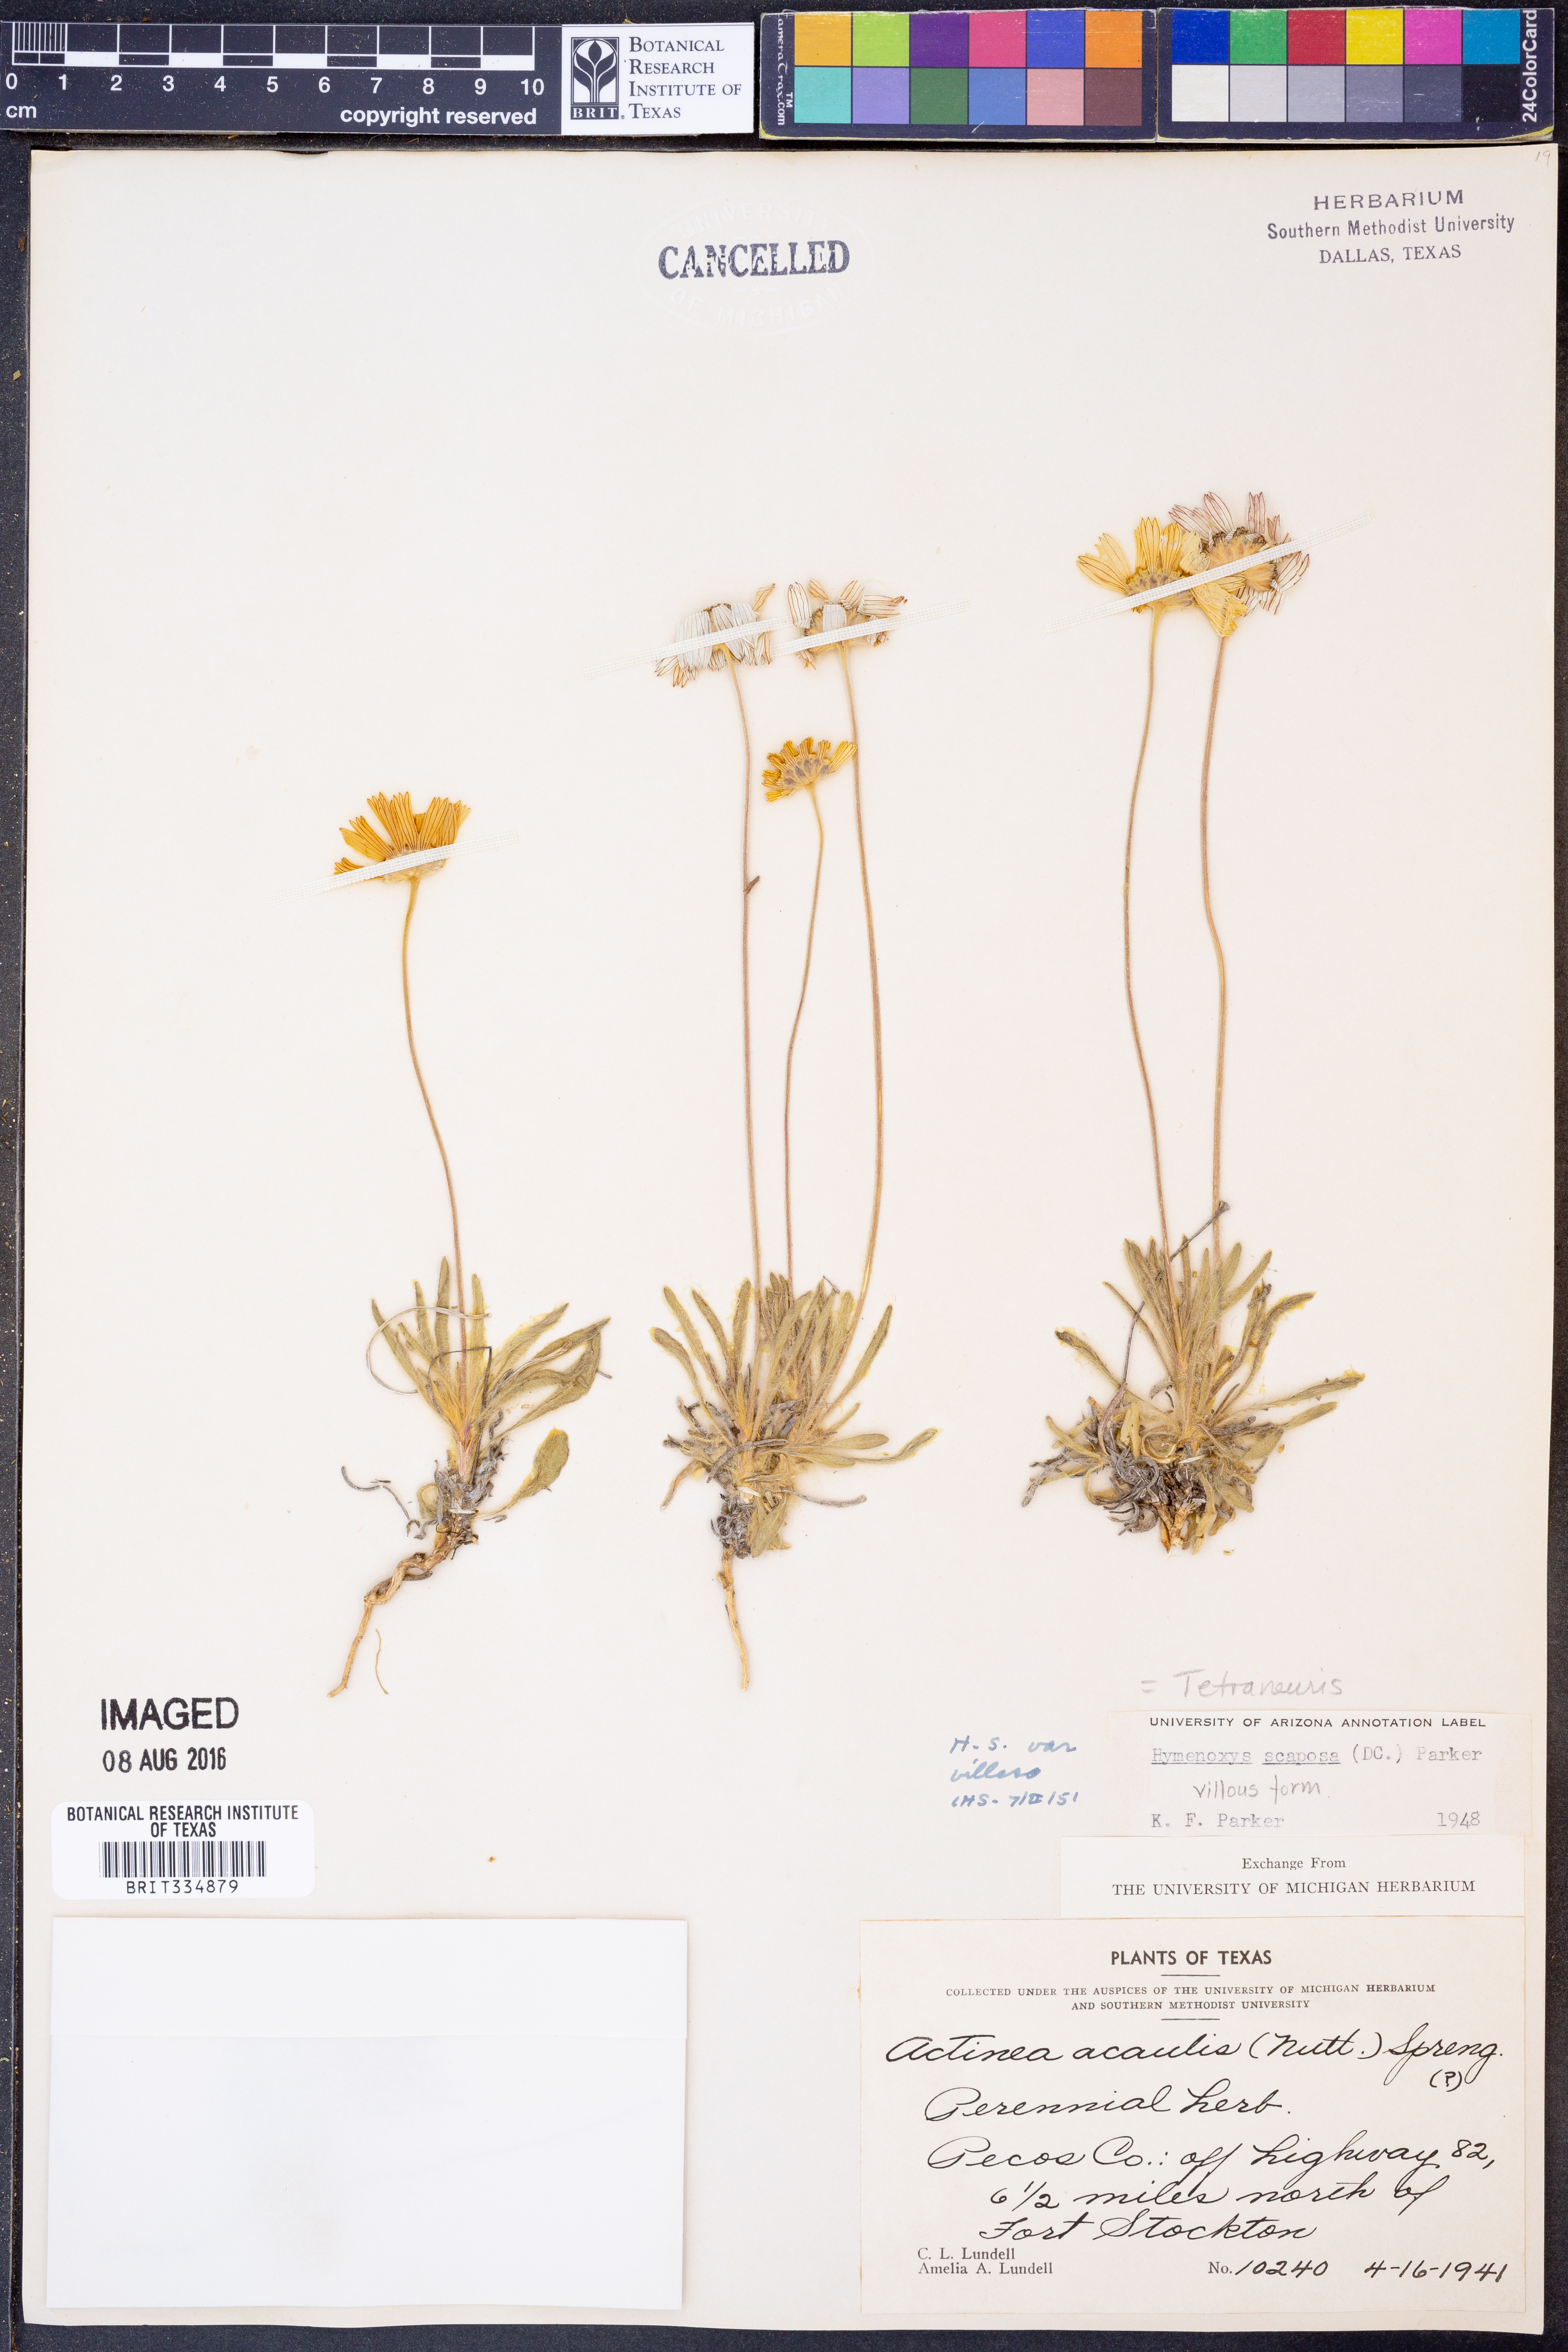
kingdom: Plantae
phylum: Tracheophyta
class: Magnoliopsida
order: Asterales
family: Asteraceae
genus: Tetraneuris
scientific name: Tetraneuris scaposa
